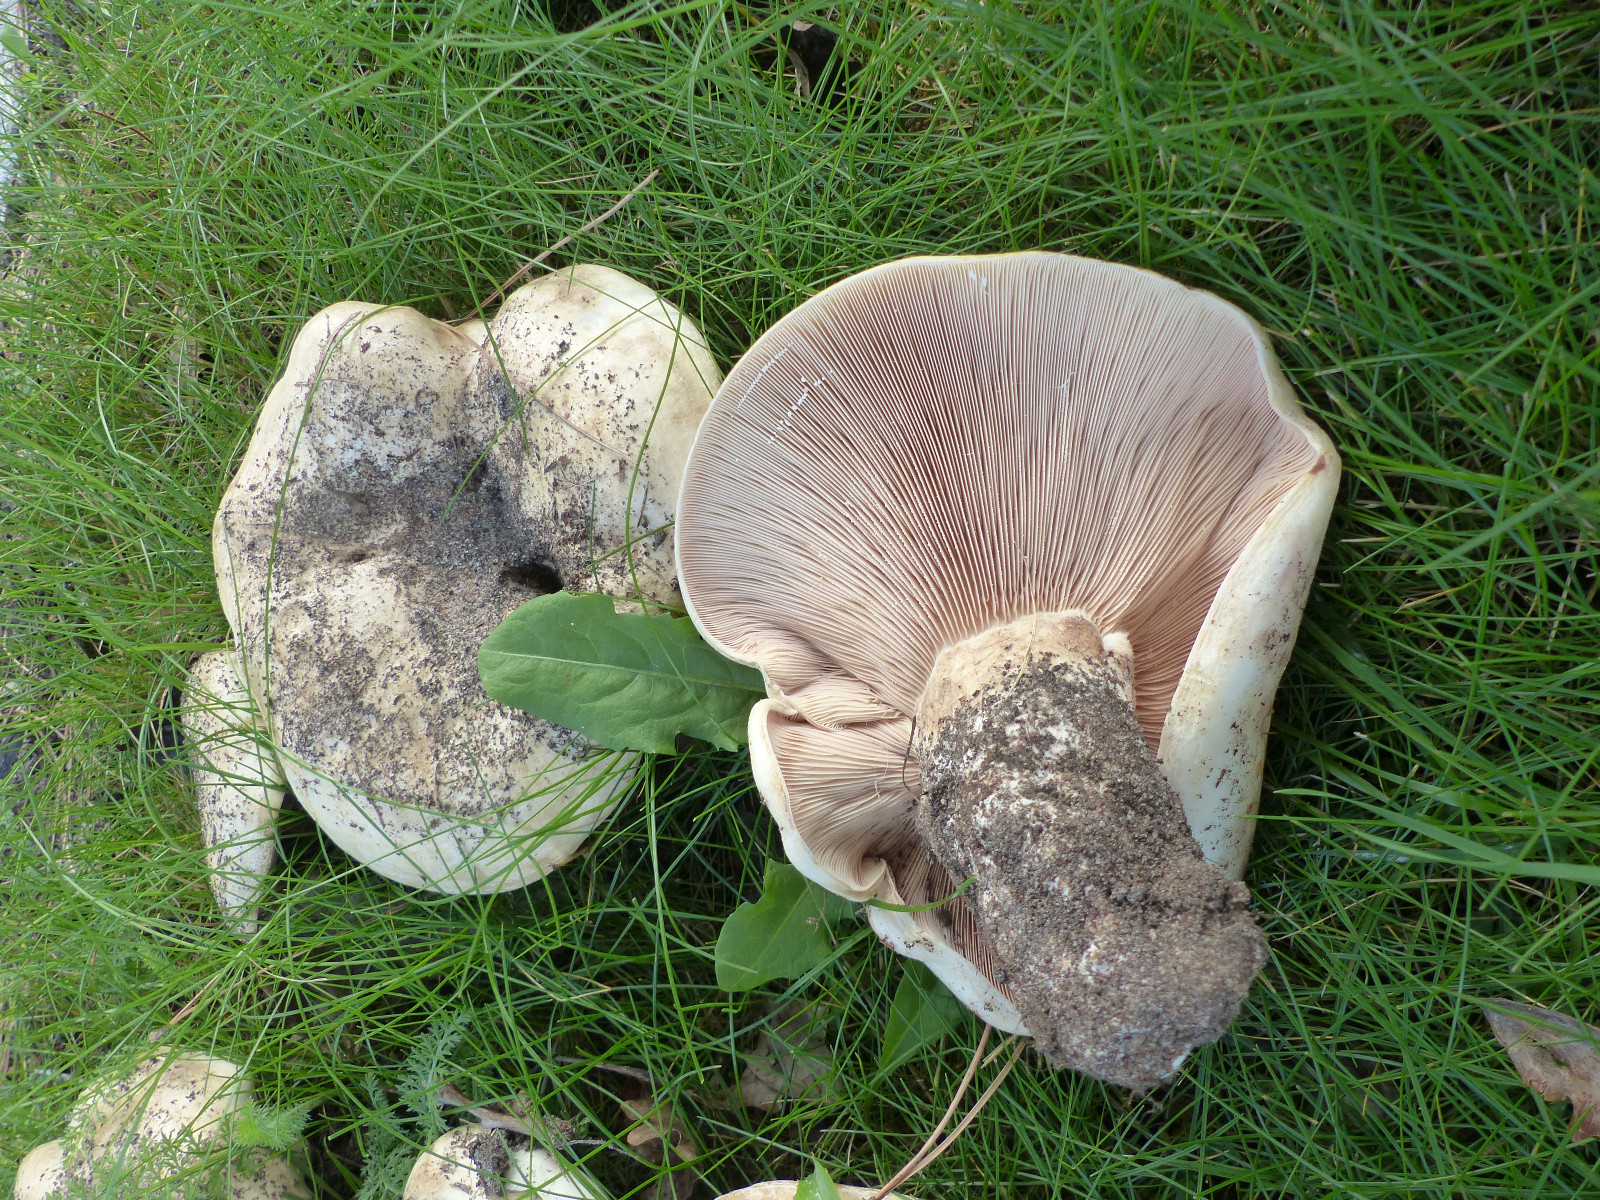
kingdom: Fungi
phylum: Basidiomycota
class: Agaricomycetes
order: Russulales
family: Russulaceae
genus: Lactarius
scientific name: Lactarius controversus
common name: rosabladet mælkehat
